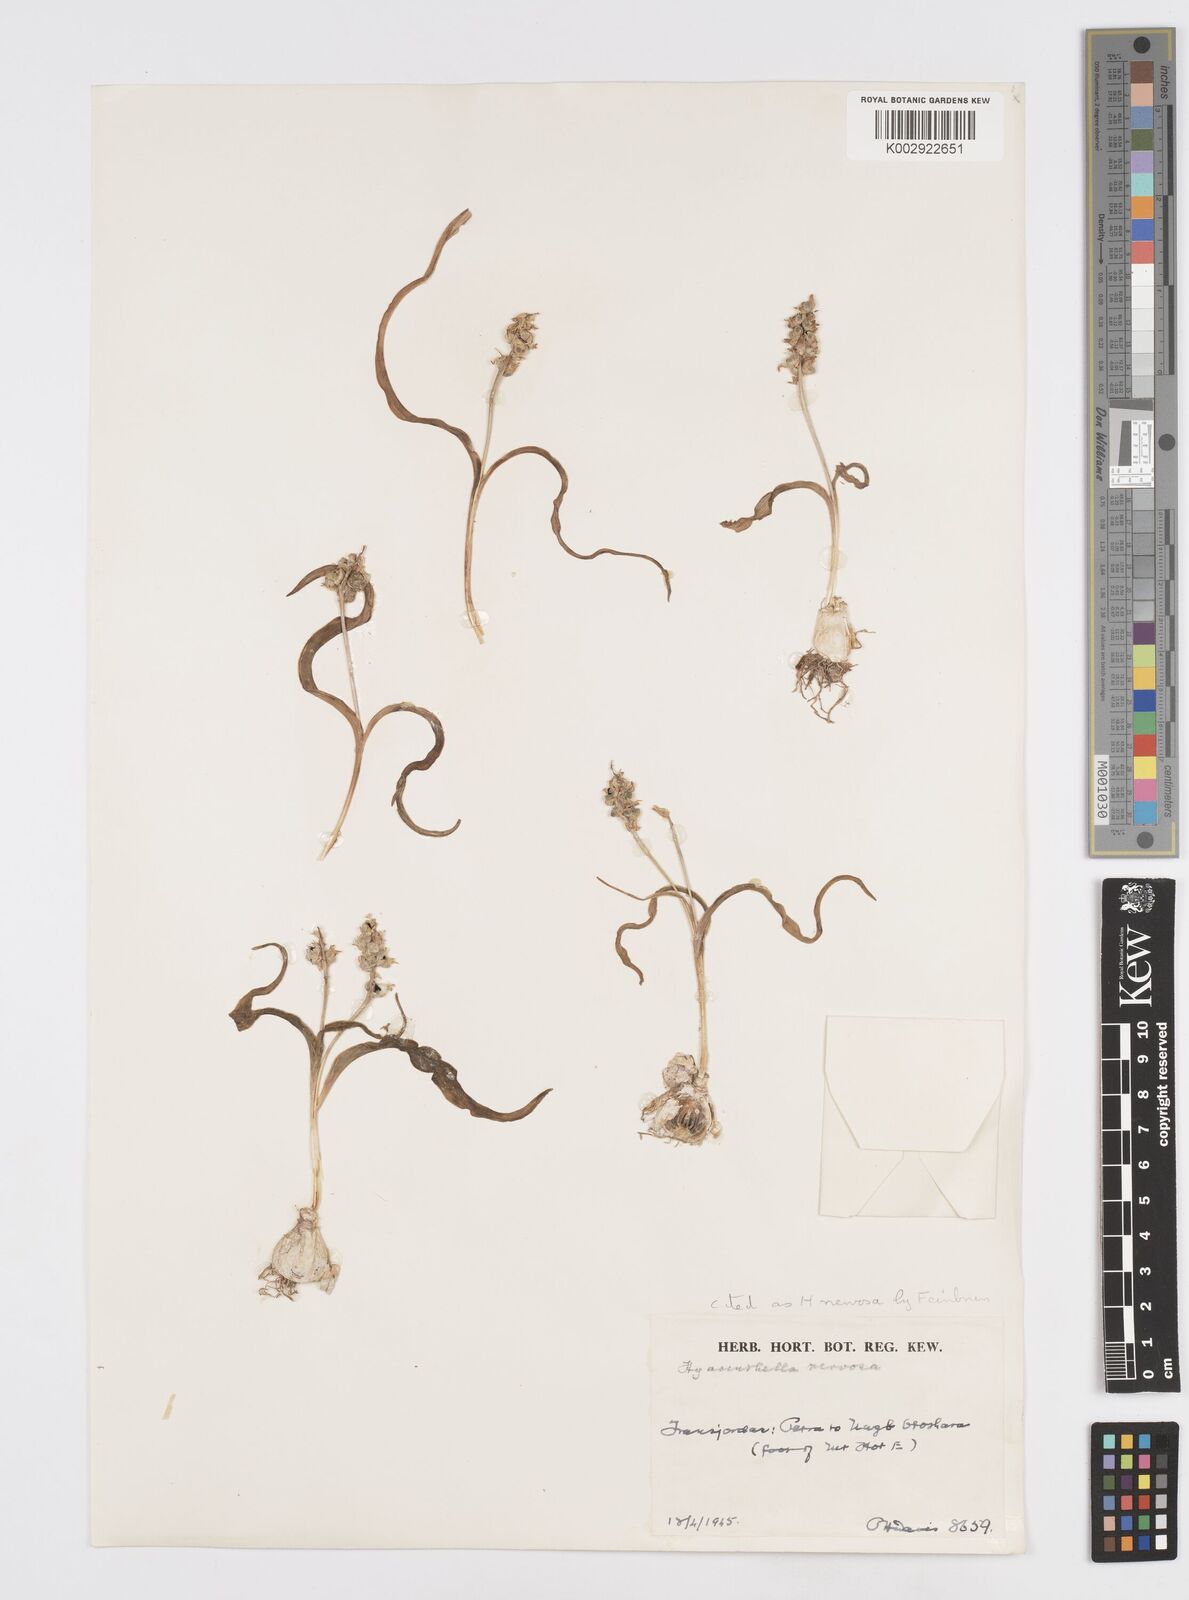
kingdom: Plantae
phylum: Tracheophyta
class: Liliopsida
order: Asparagales
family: Asparagaceae
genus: Hyacinthella
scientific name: Hyacinthella nervosa
